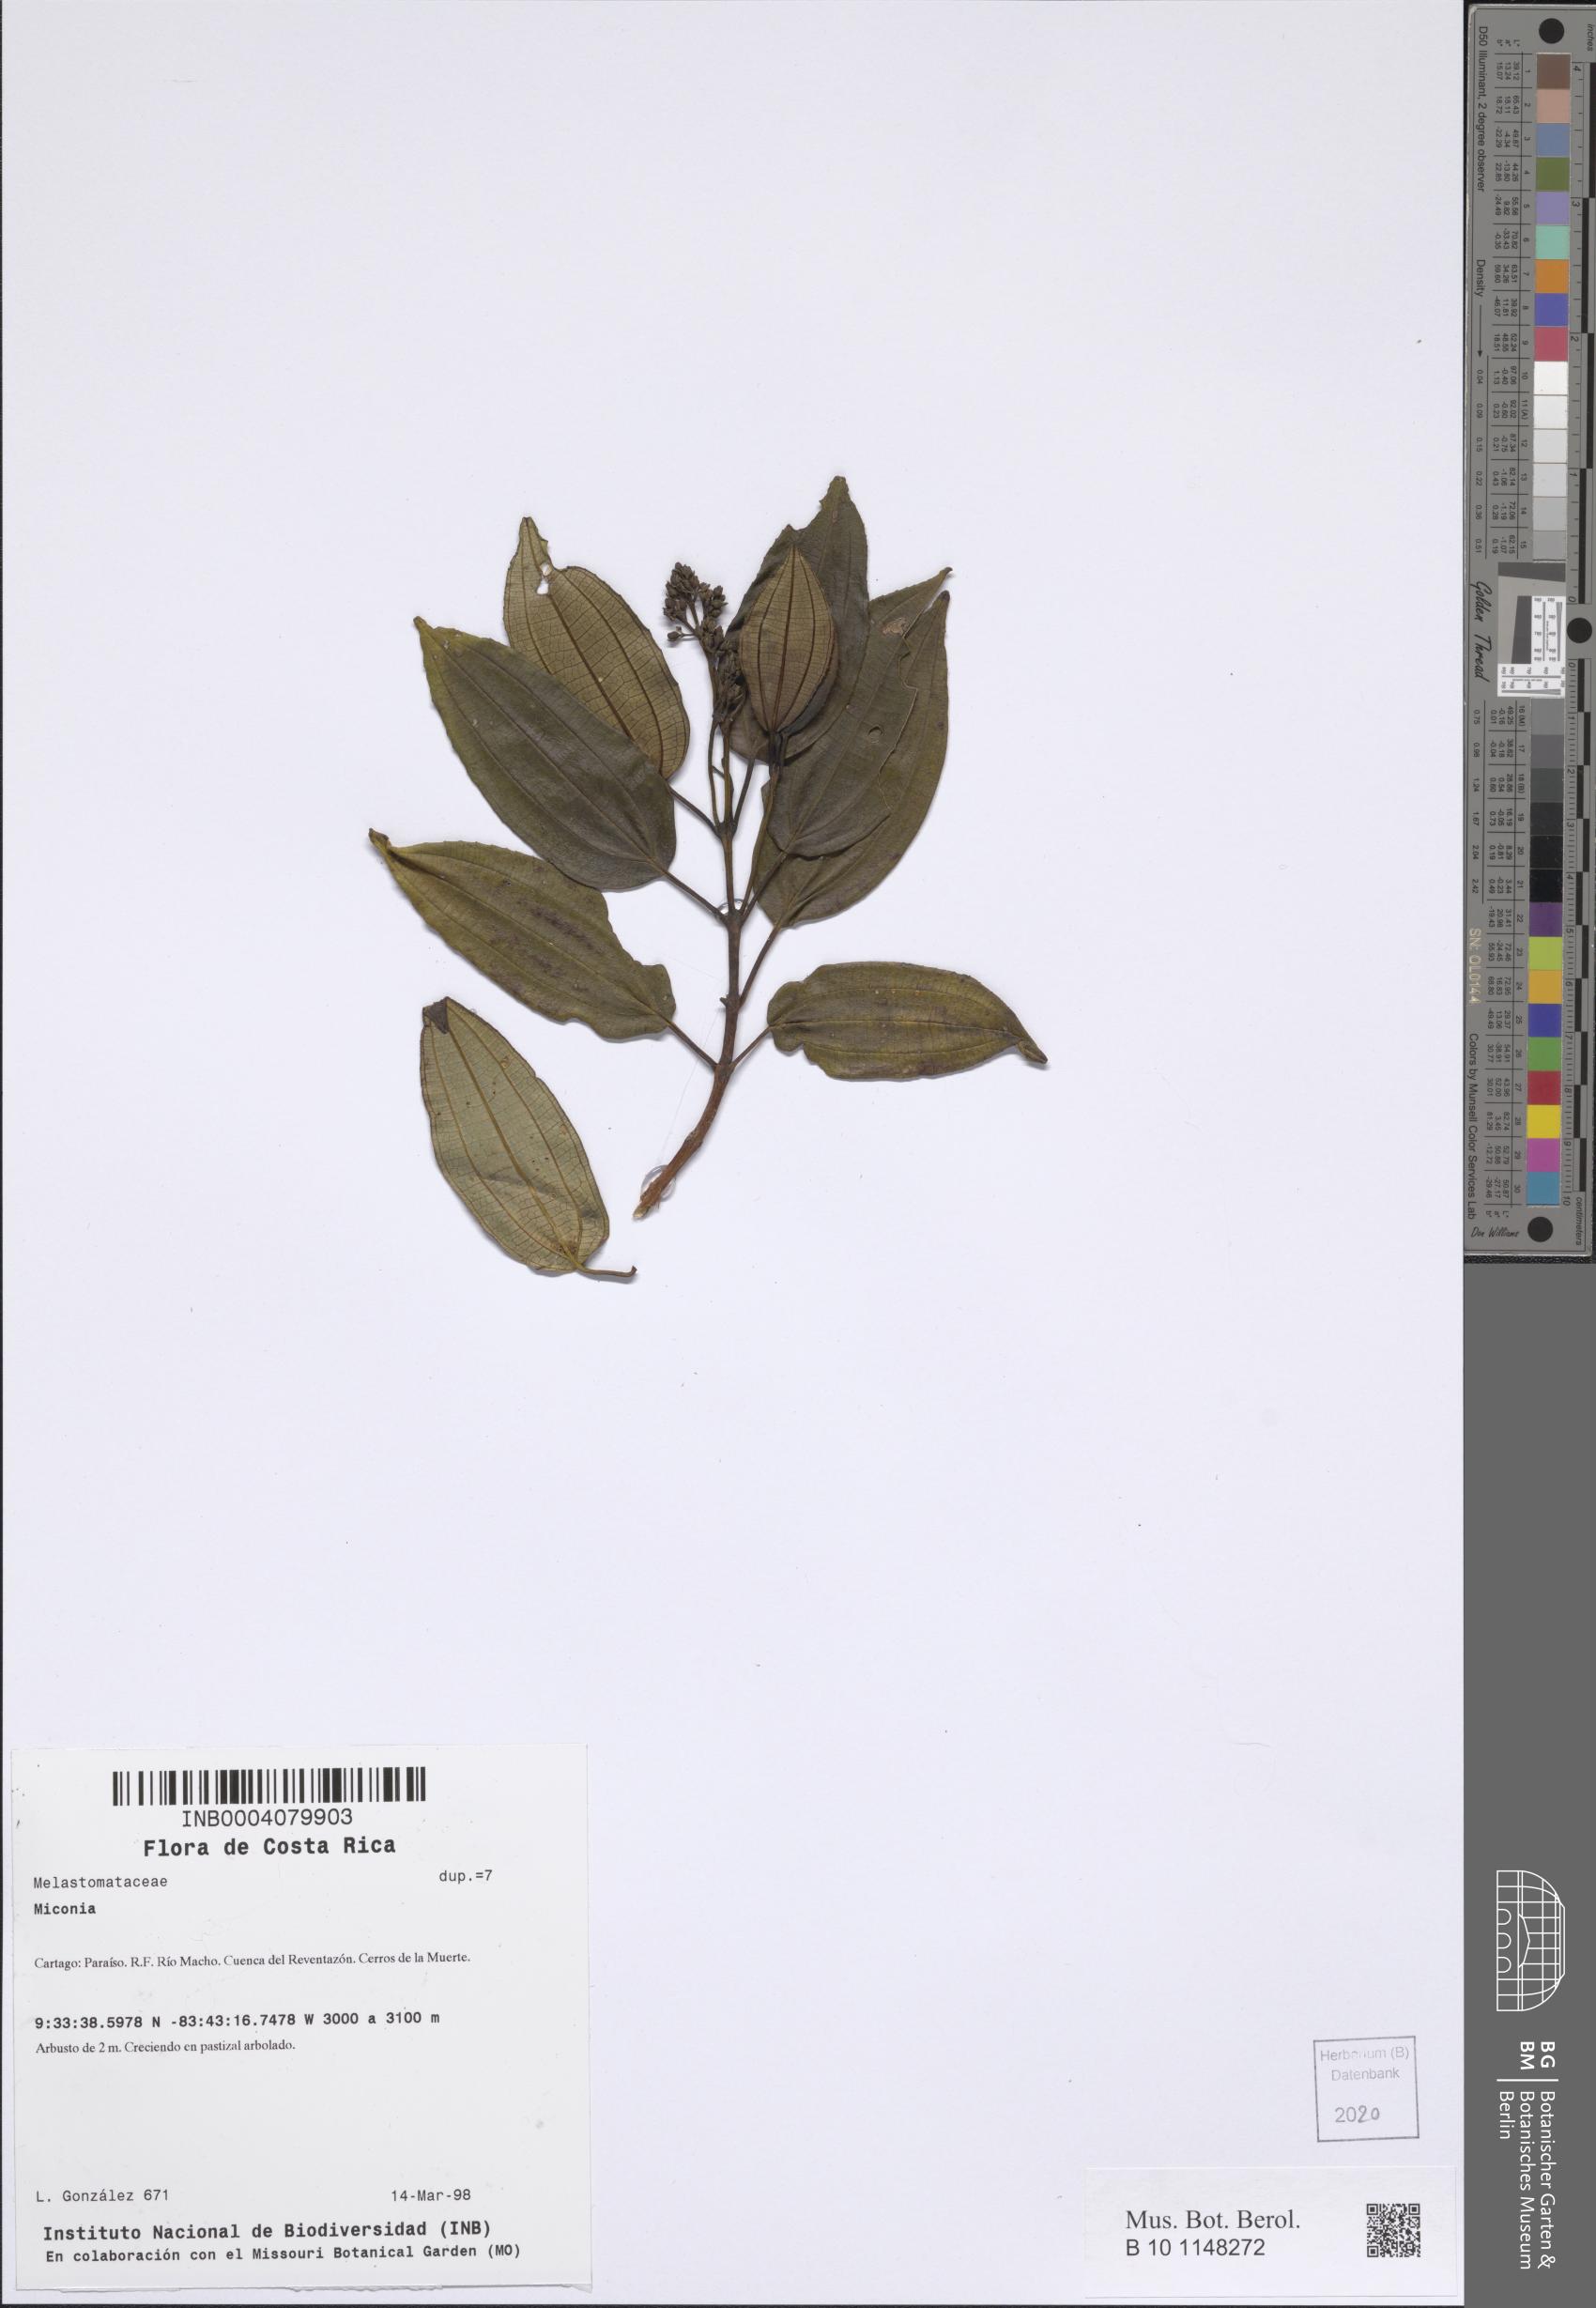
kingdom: Plantae
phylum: Tracheophyta
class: Magnoliopsida
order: Myrtales
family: Melastomataceae
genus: Miconia
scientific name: Miconia
